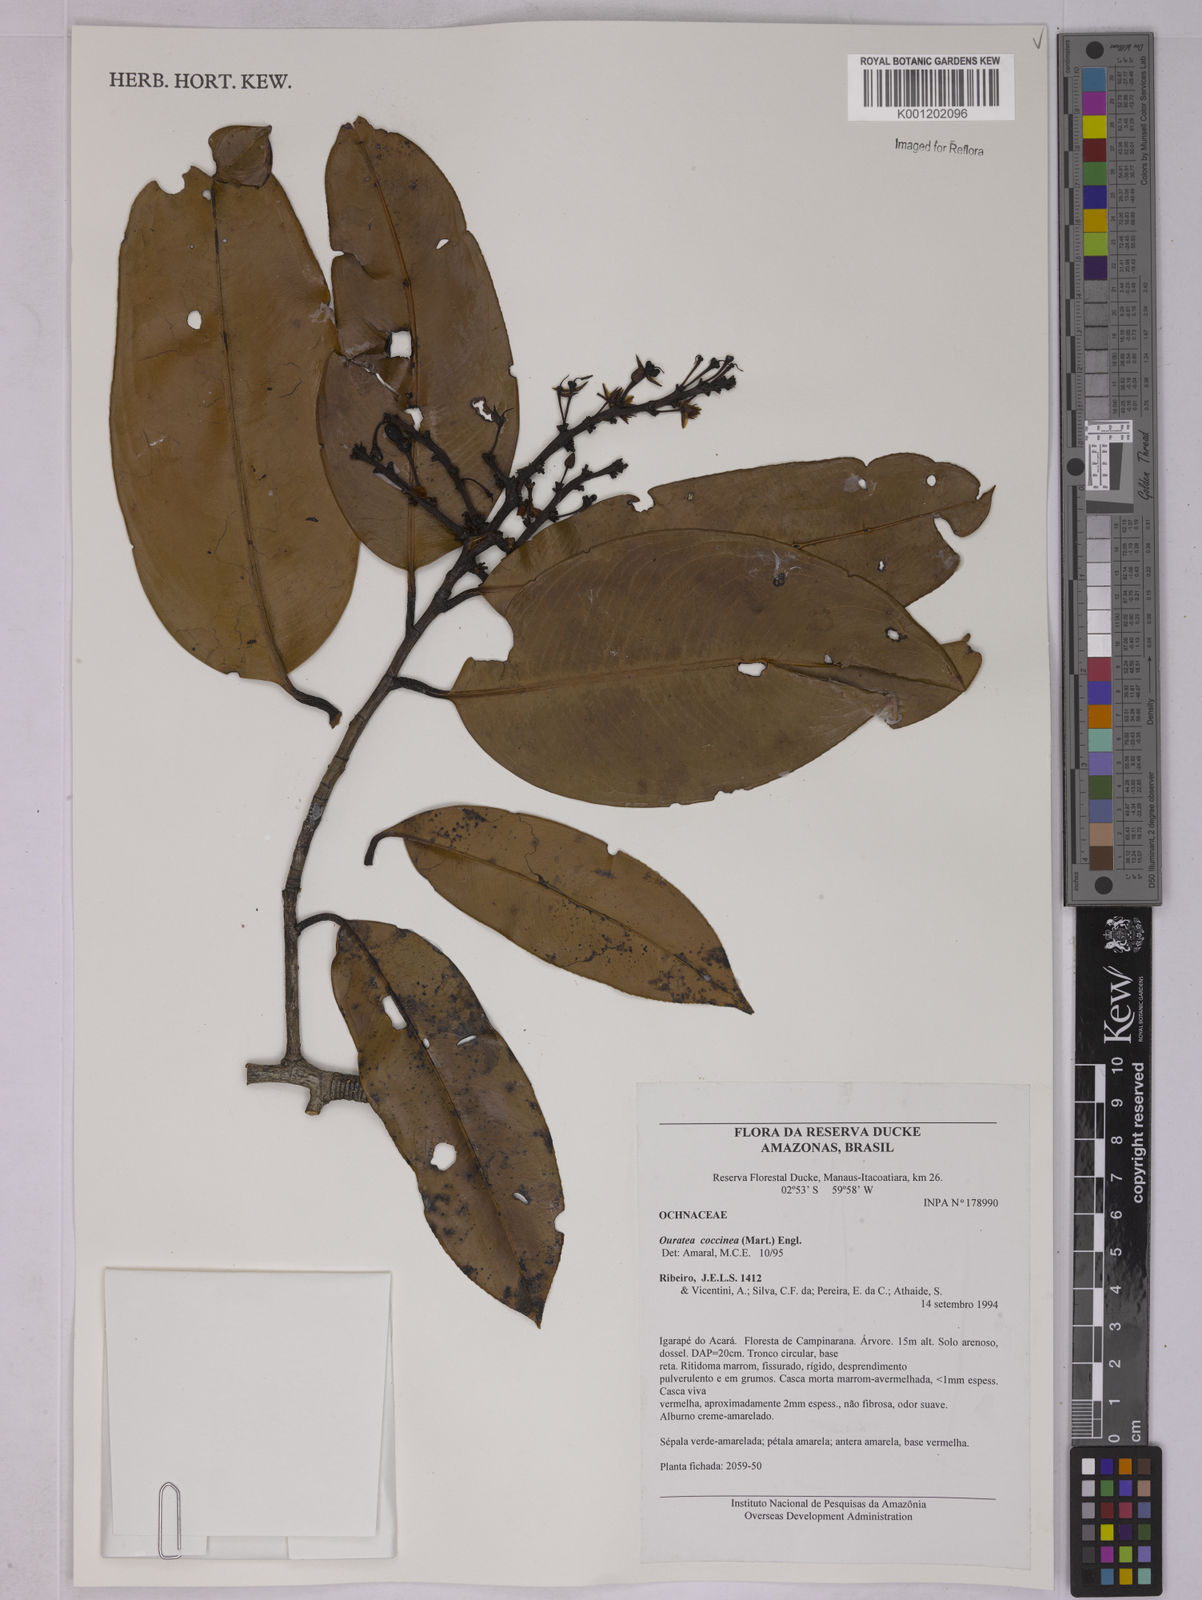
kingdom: Plantae
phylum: Tracheophyta
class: Magnoliopsida
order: Malpighiales
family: Ochnaceae
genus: Ouratea
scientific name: Ouratea coccinea
